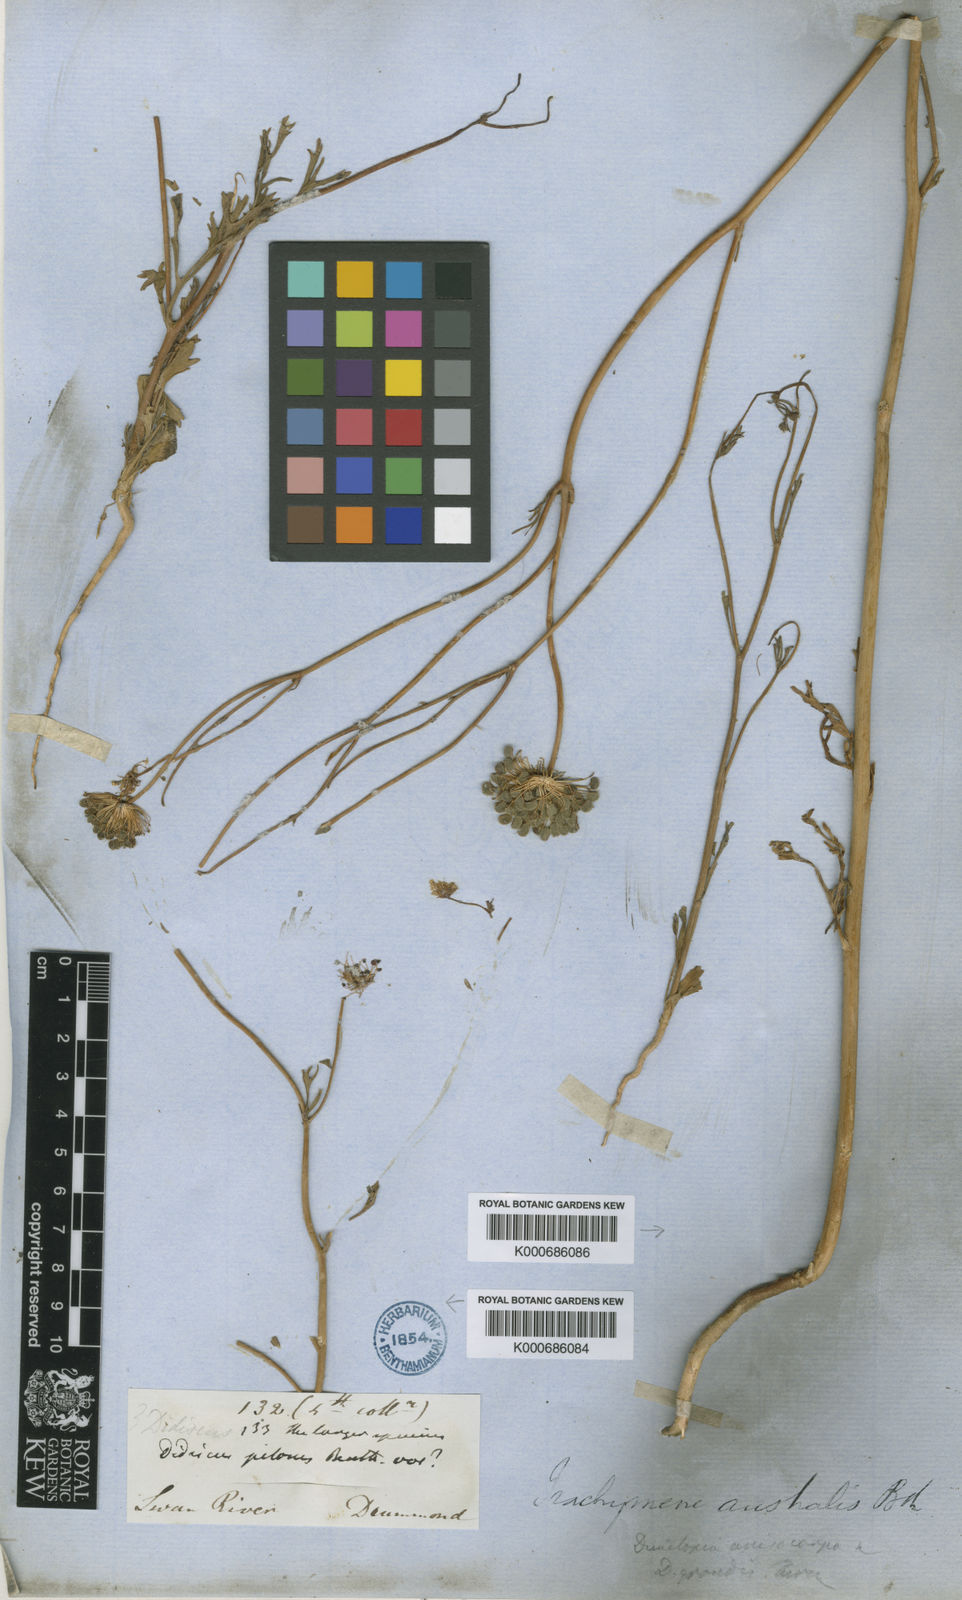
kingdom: Plantae
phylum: Tracheophyta
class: Magnoliopsida
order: Apiales
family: Araliaceae
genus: Trachymene
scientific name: Trachymene anisocarpa
